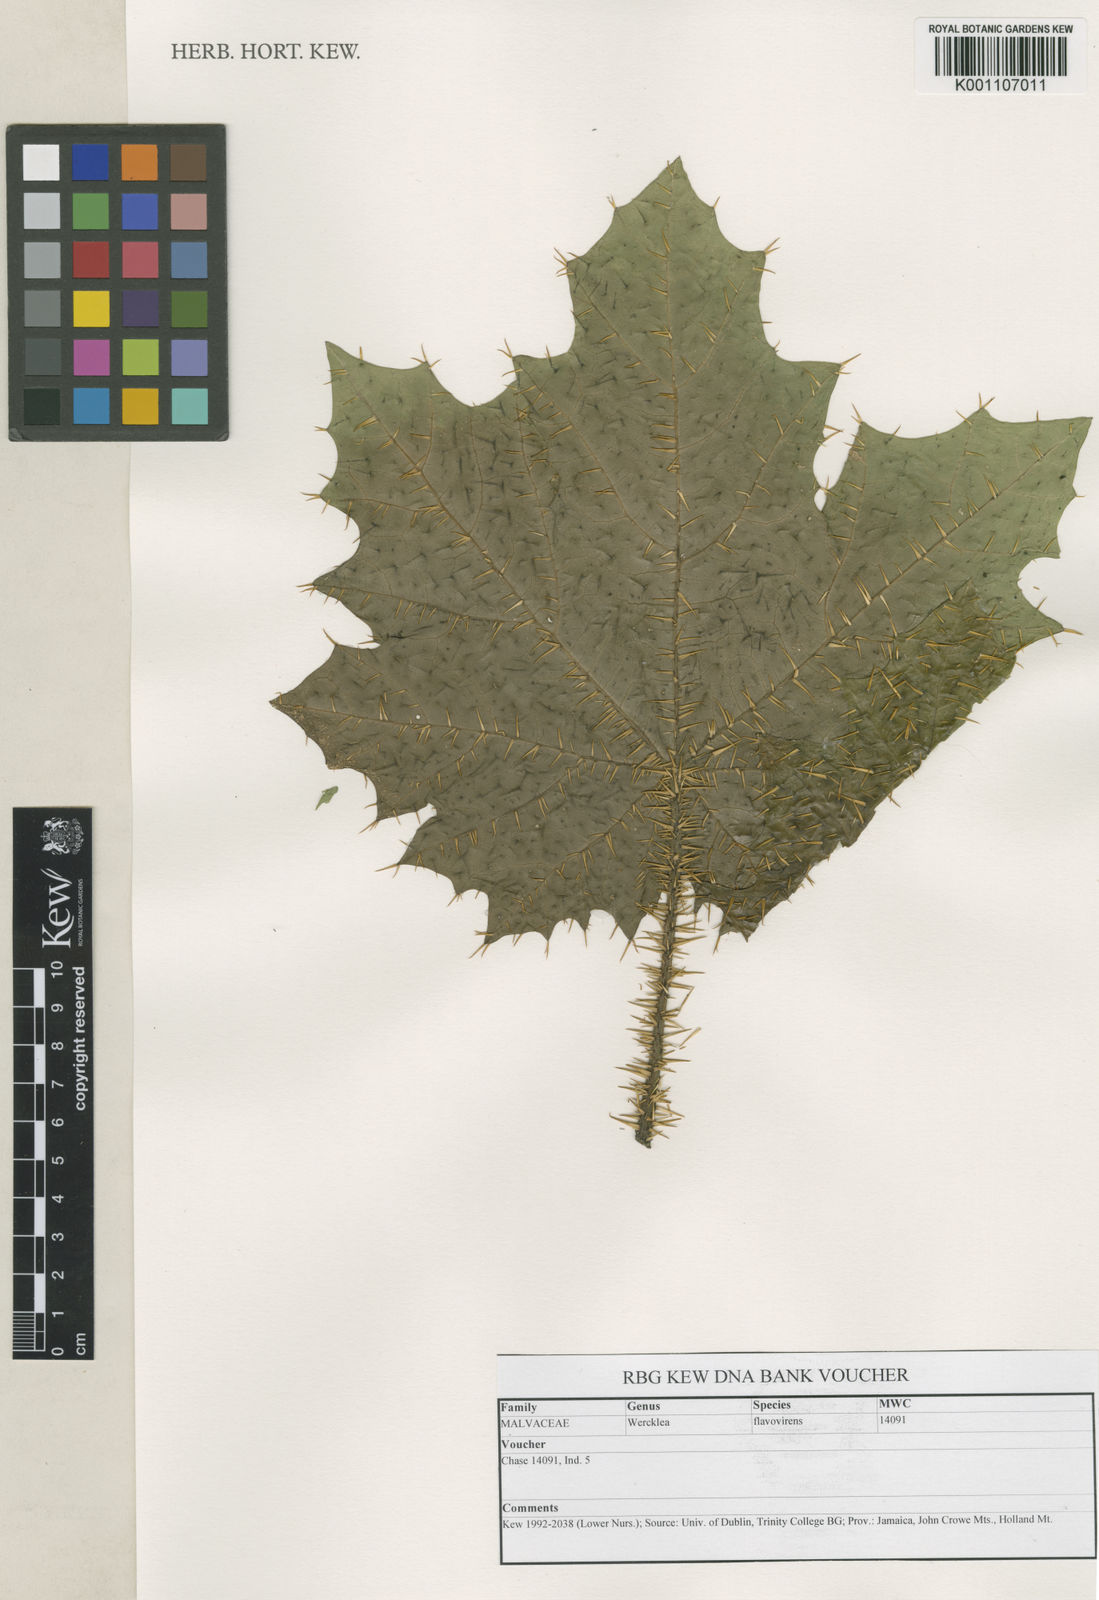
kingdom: Plantae
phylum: Tracheophyta
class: Magnoliopsida
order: Malvales
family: Malvaceae
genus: Wercklea
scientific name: Wercklea flavovirens
